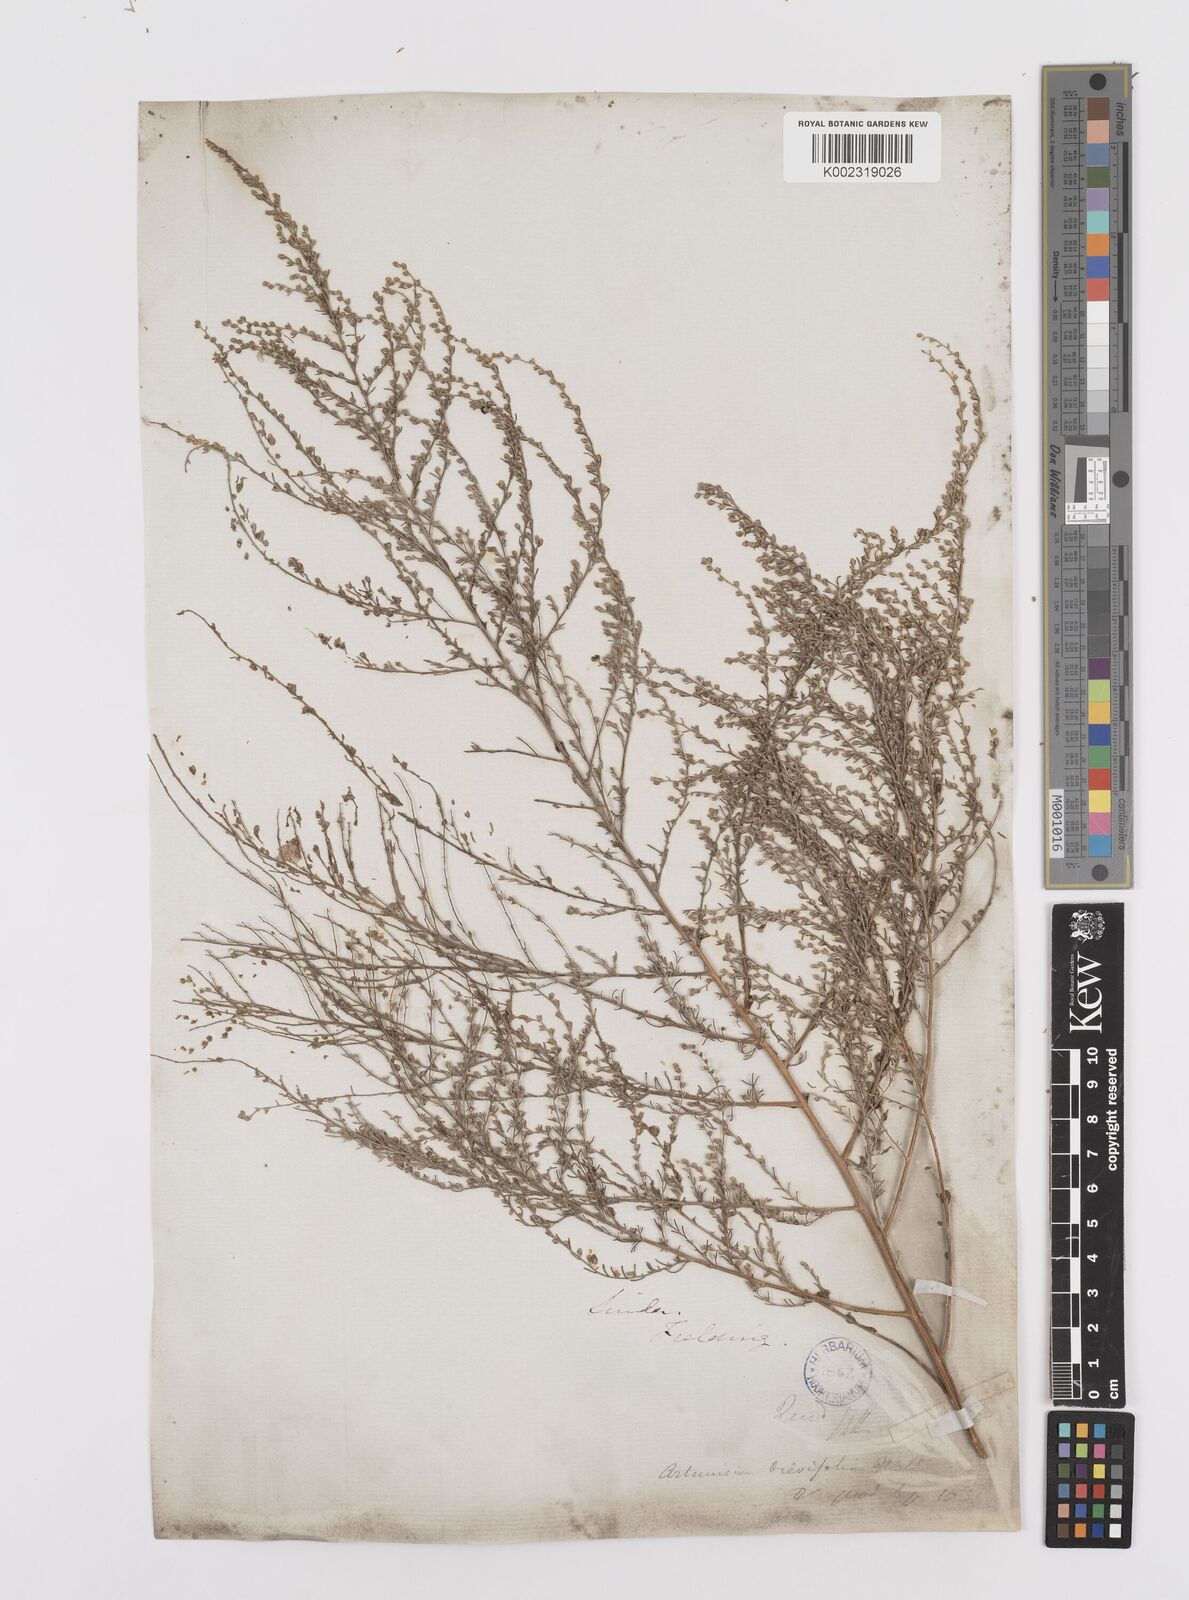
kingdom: Plantae
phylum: Tracheophyta
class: Magnoliopsida
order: Asterales
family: Asteraceae
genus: Artemisia
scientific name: Artemisia kurramensis
